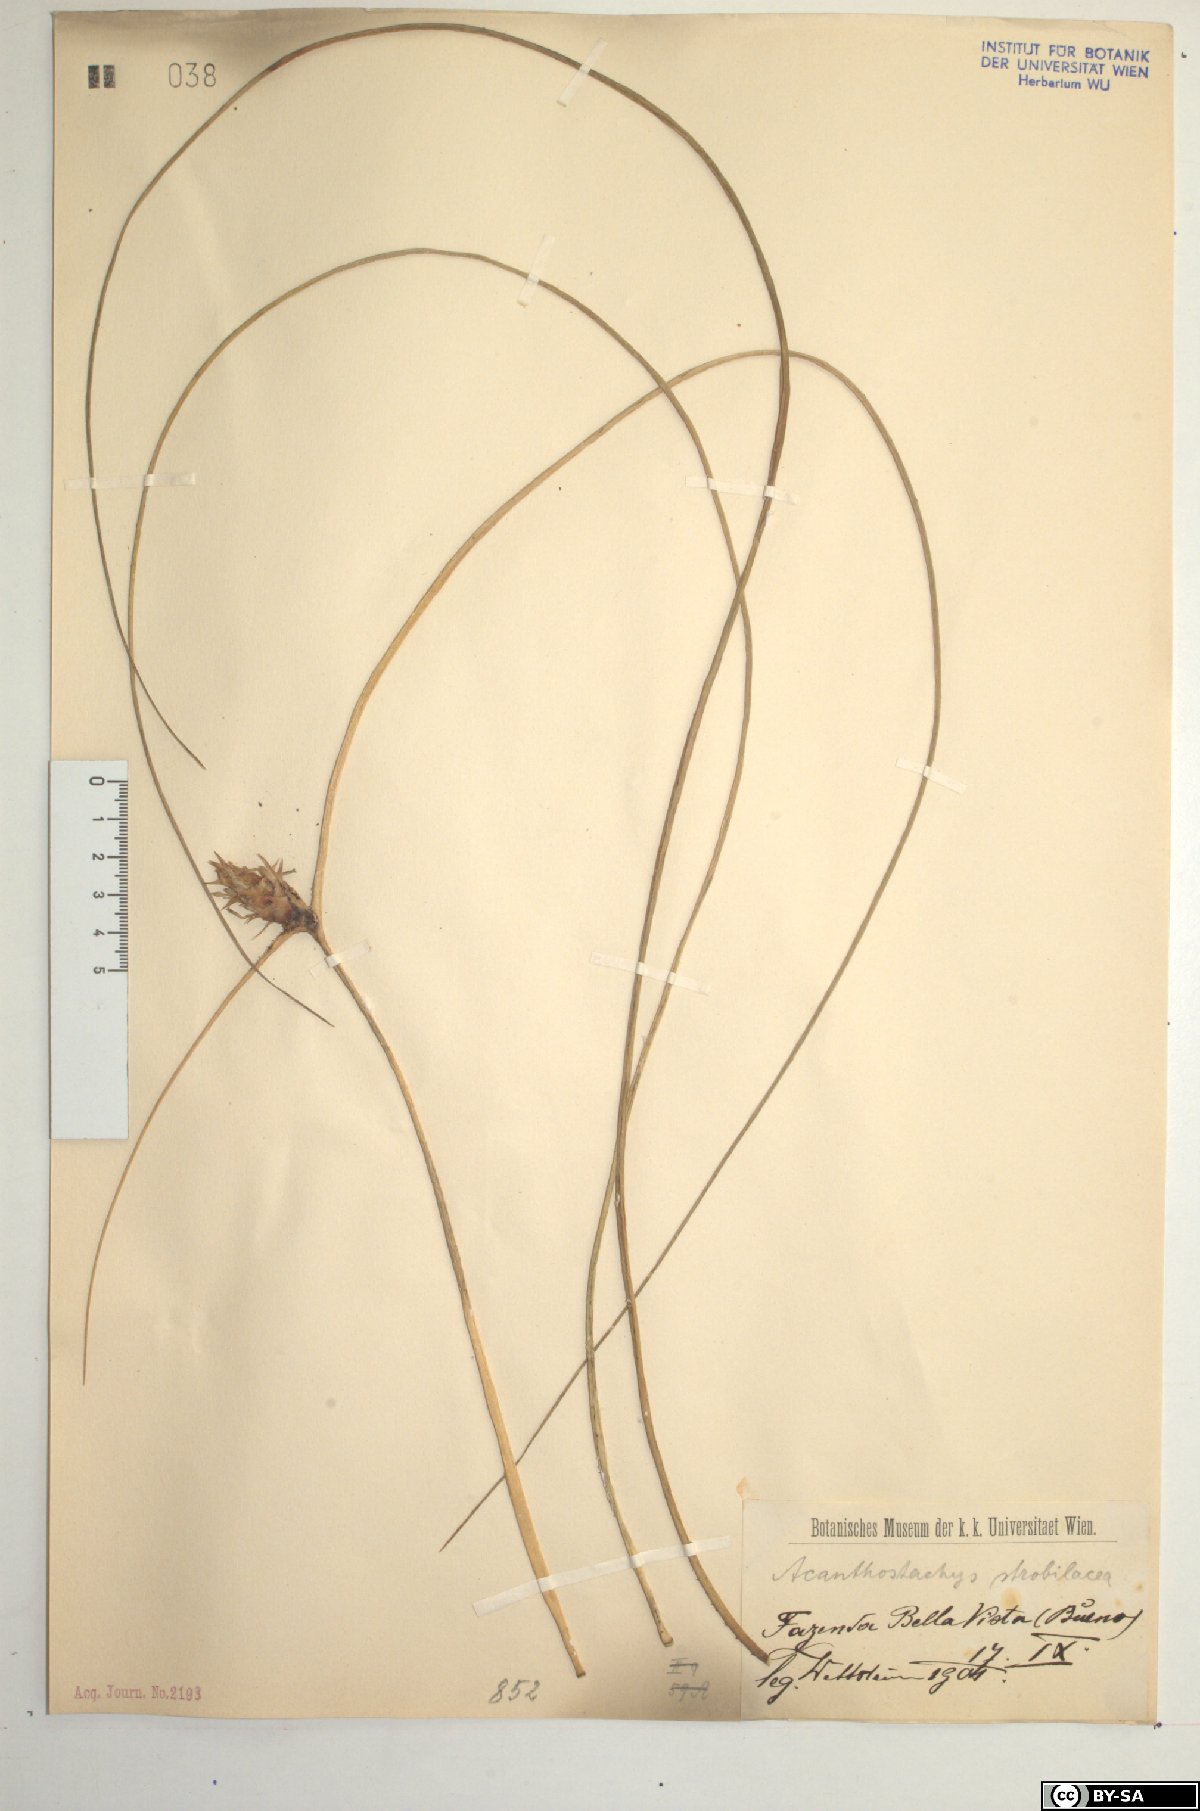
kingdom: Plantae
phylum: Tracheophyta
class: Liliopsida
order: Poales
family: Bromeliaceae
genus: Acanthostachys
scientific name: Acanthostachys strobilacea
